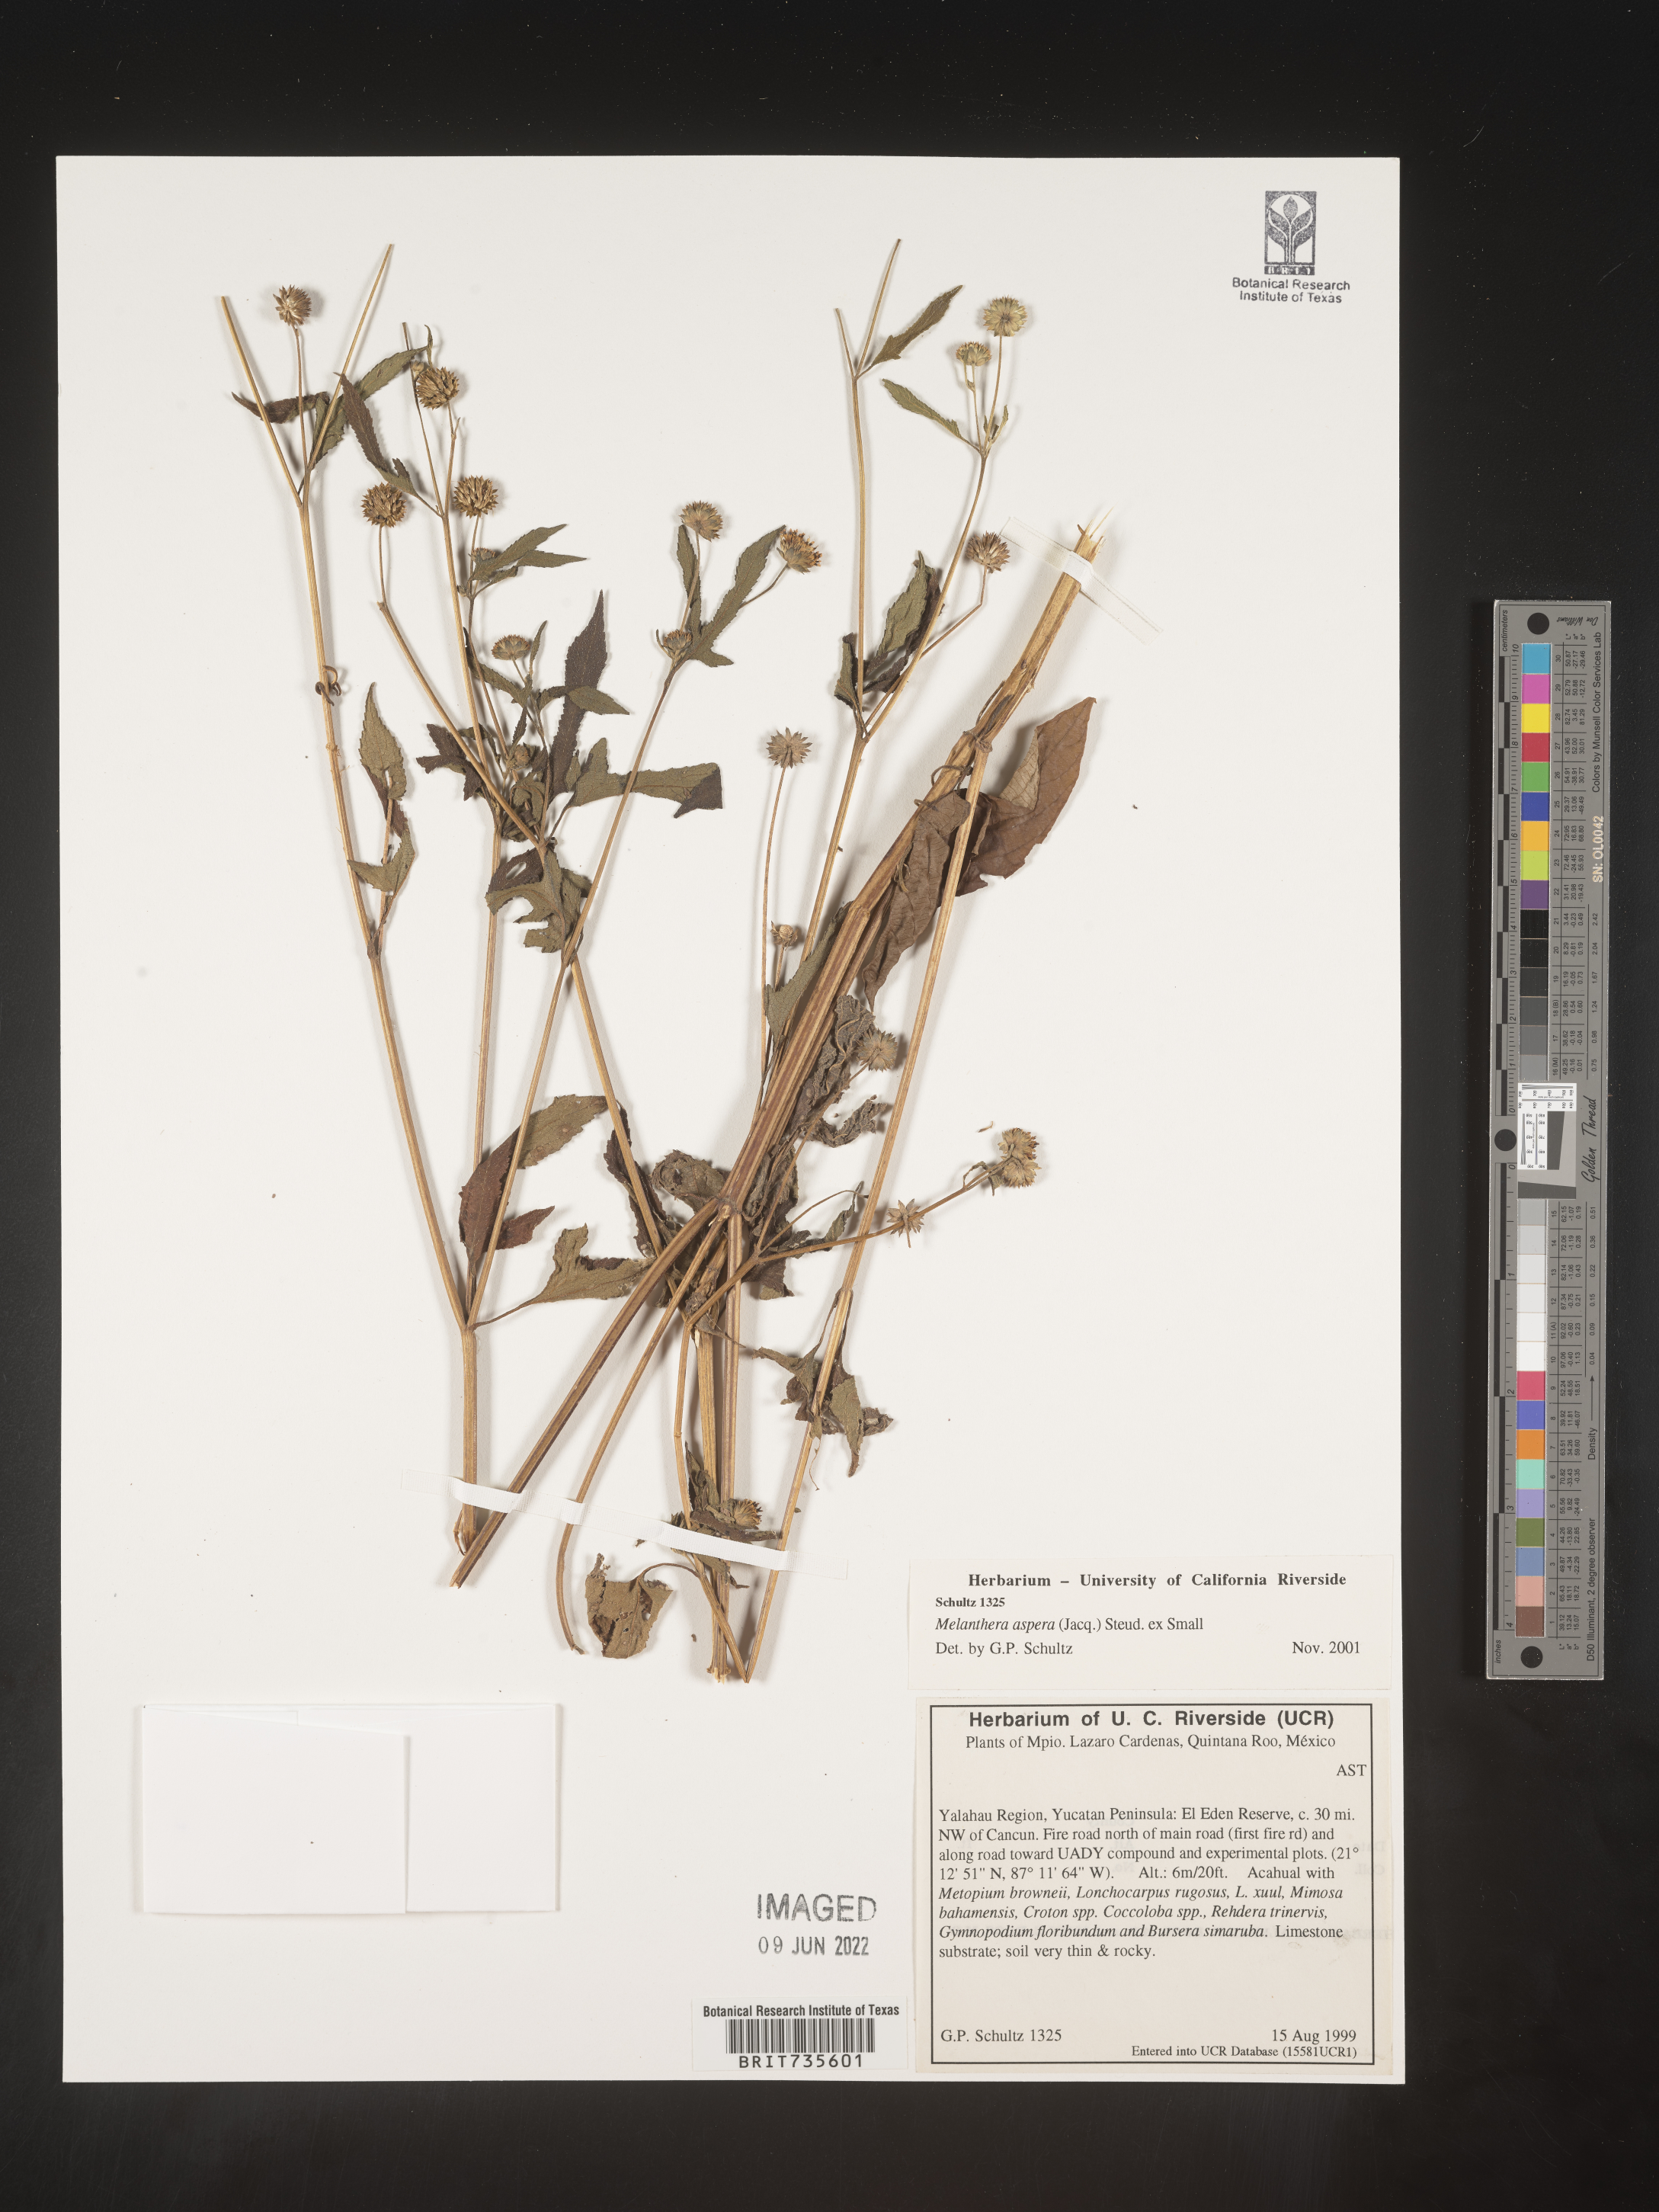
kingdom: Plantae
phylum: Tracheophyta
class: Magnoliopsida
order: Asterales
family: Asteraceae
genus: Melanthera
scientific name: Melanthera
